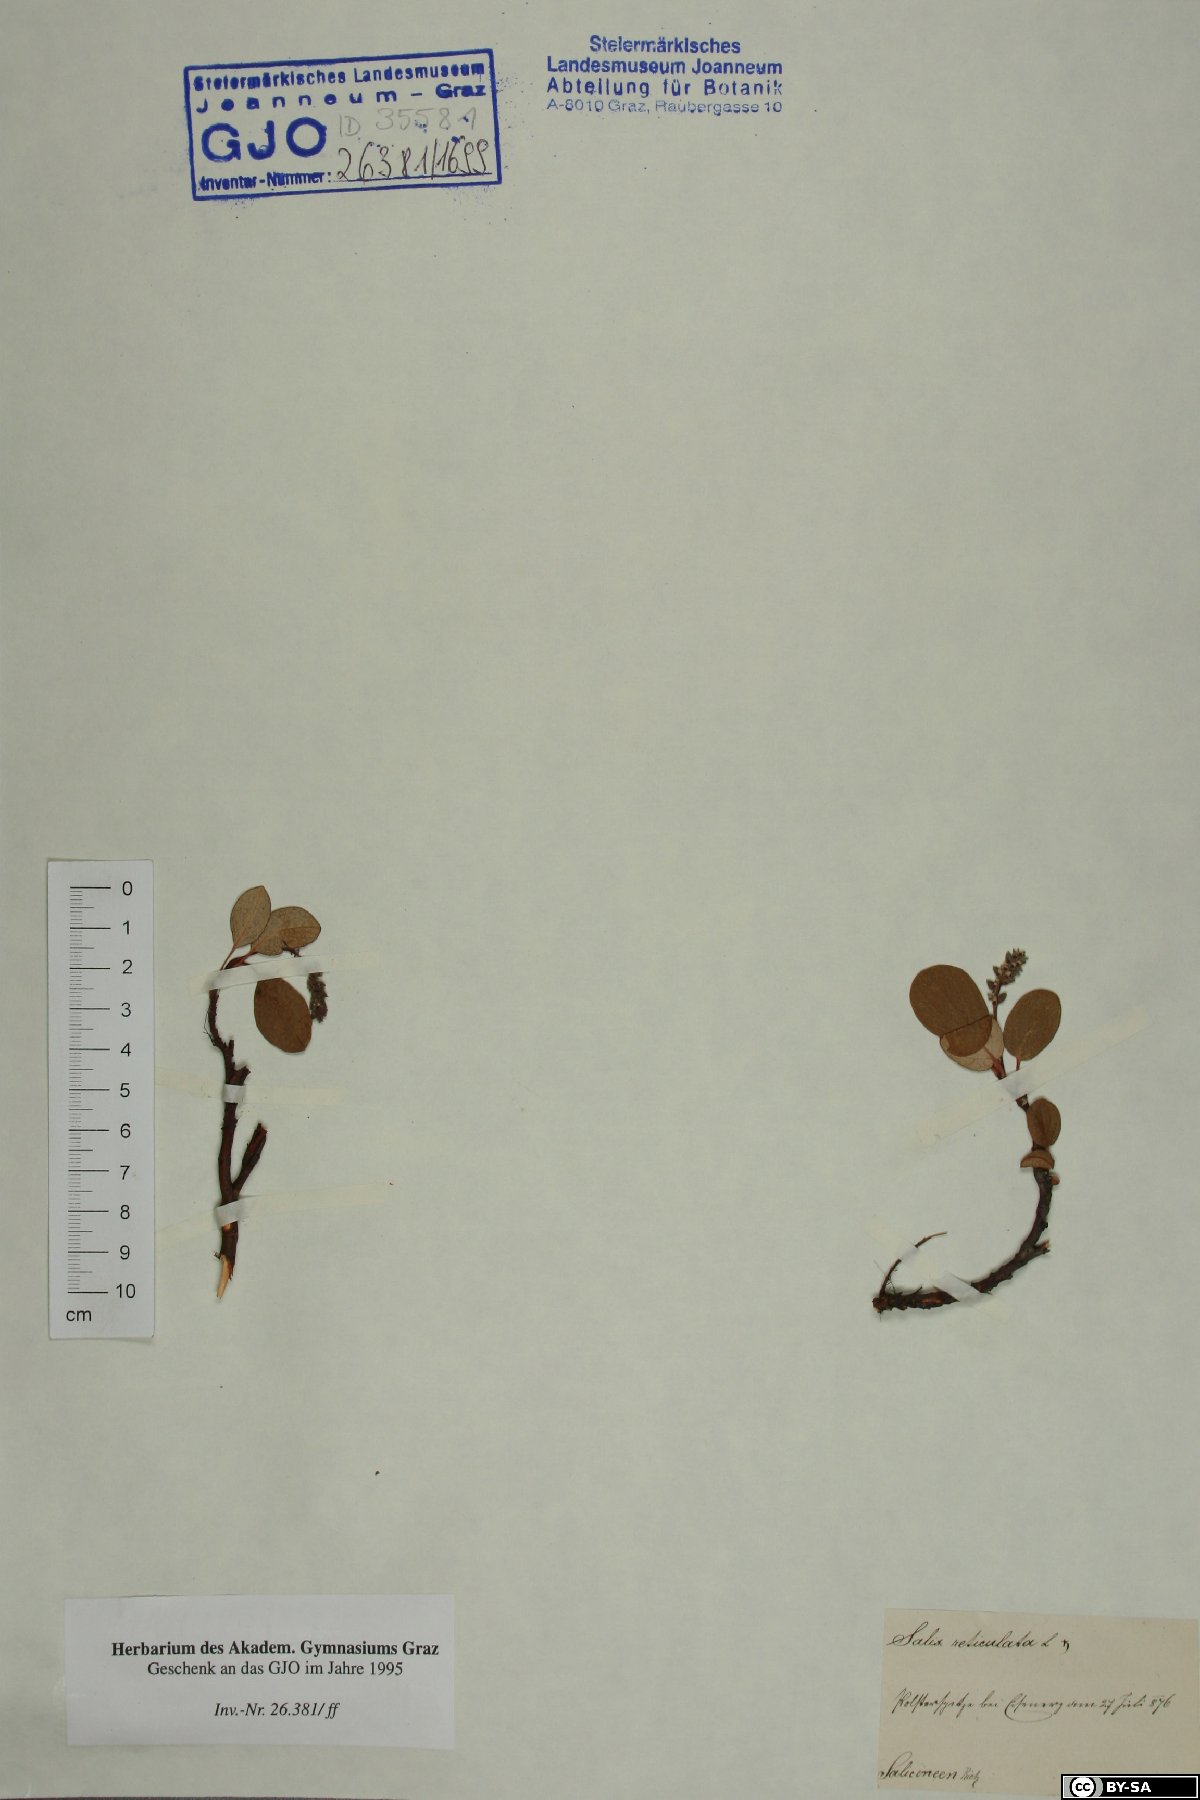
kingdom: Plantae
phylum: Tracheophyta
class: Magnoliopsida
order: Malpighiales
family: Salicaceae
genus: Salix
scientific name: Salix reticulata
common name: Net-leaved willow
